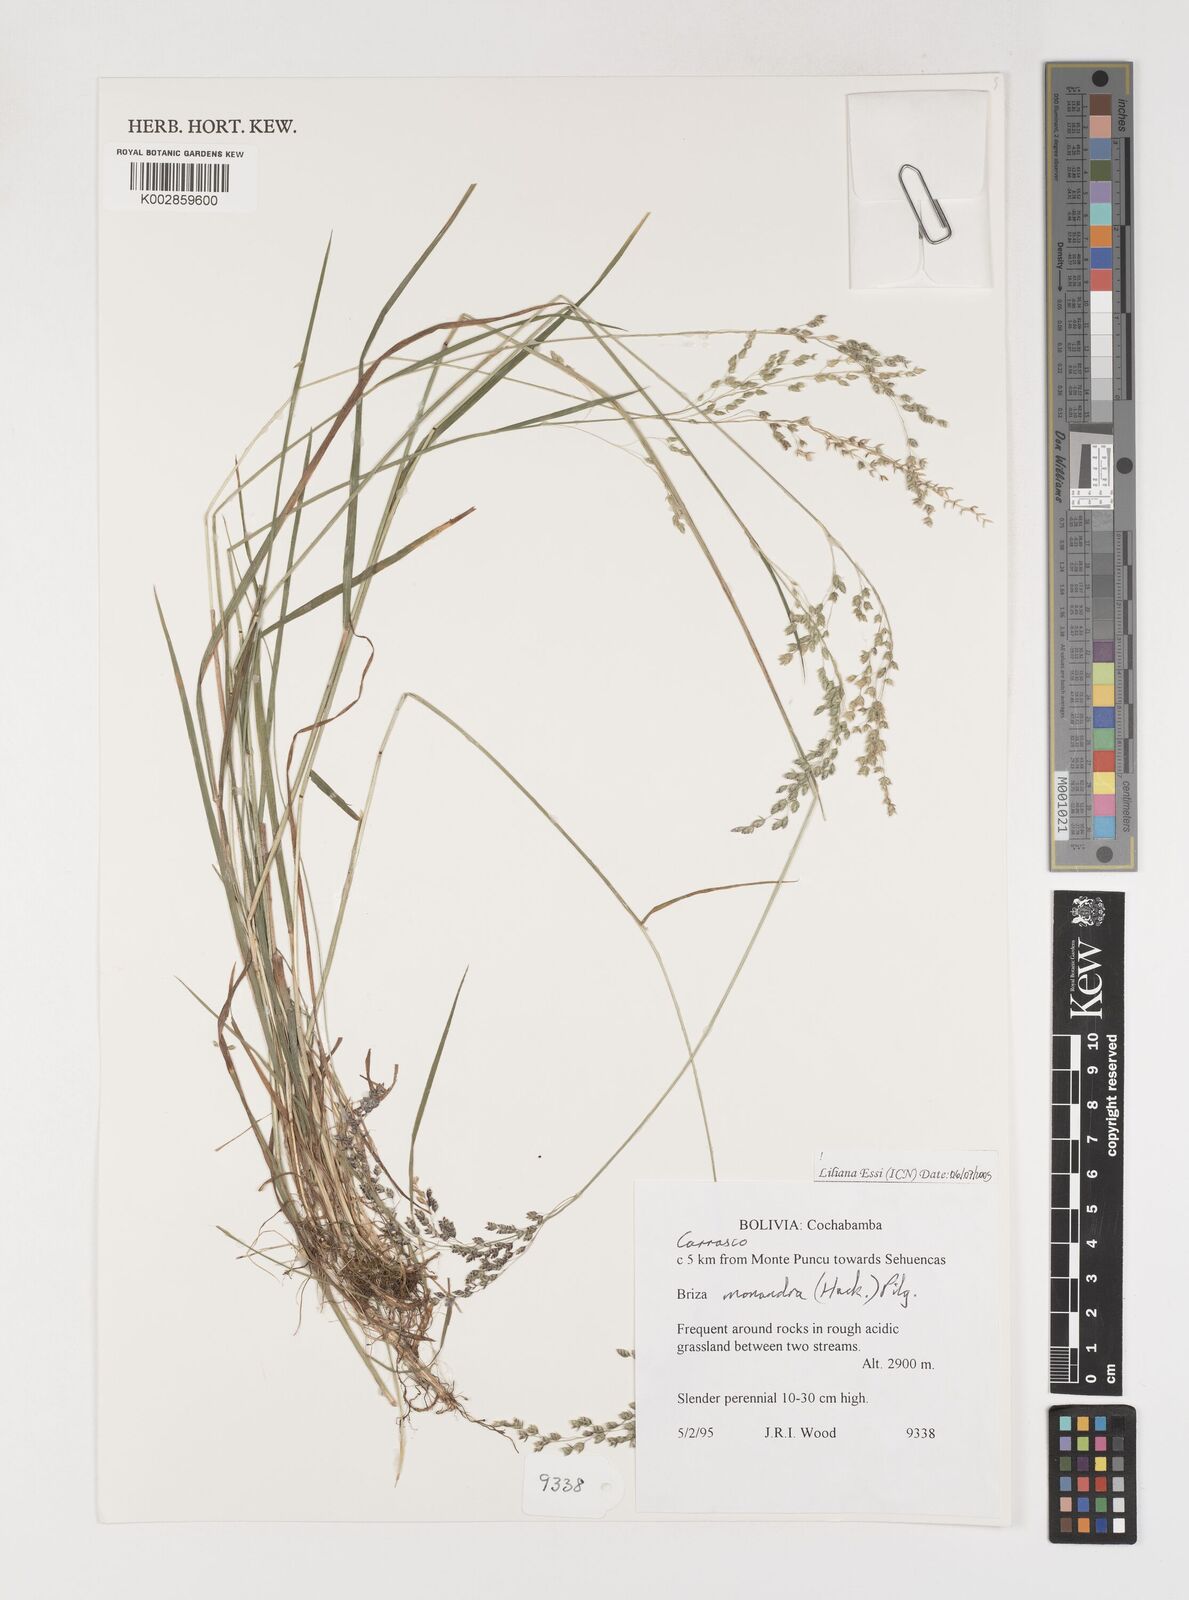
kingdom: Plantae
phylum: Tracheophyta
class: Liliopsida
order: Poales
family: Poaceae
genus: Poidium
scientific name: Poidium monandrum
